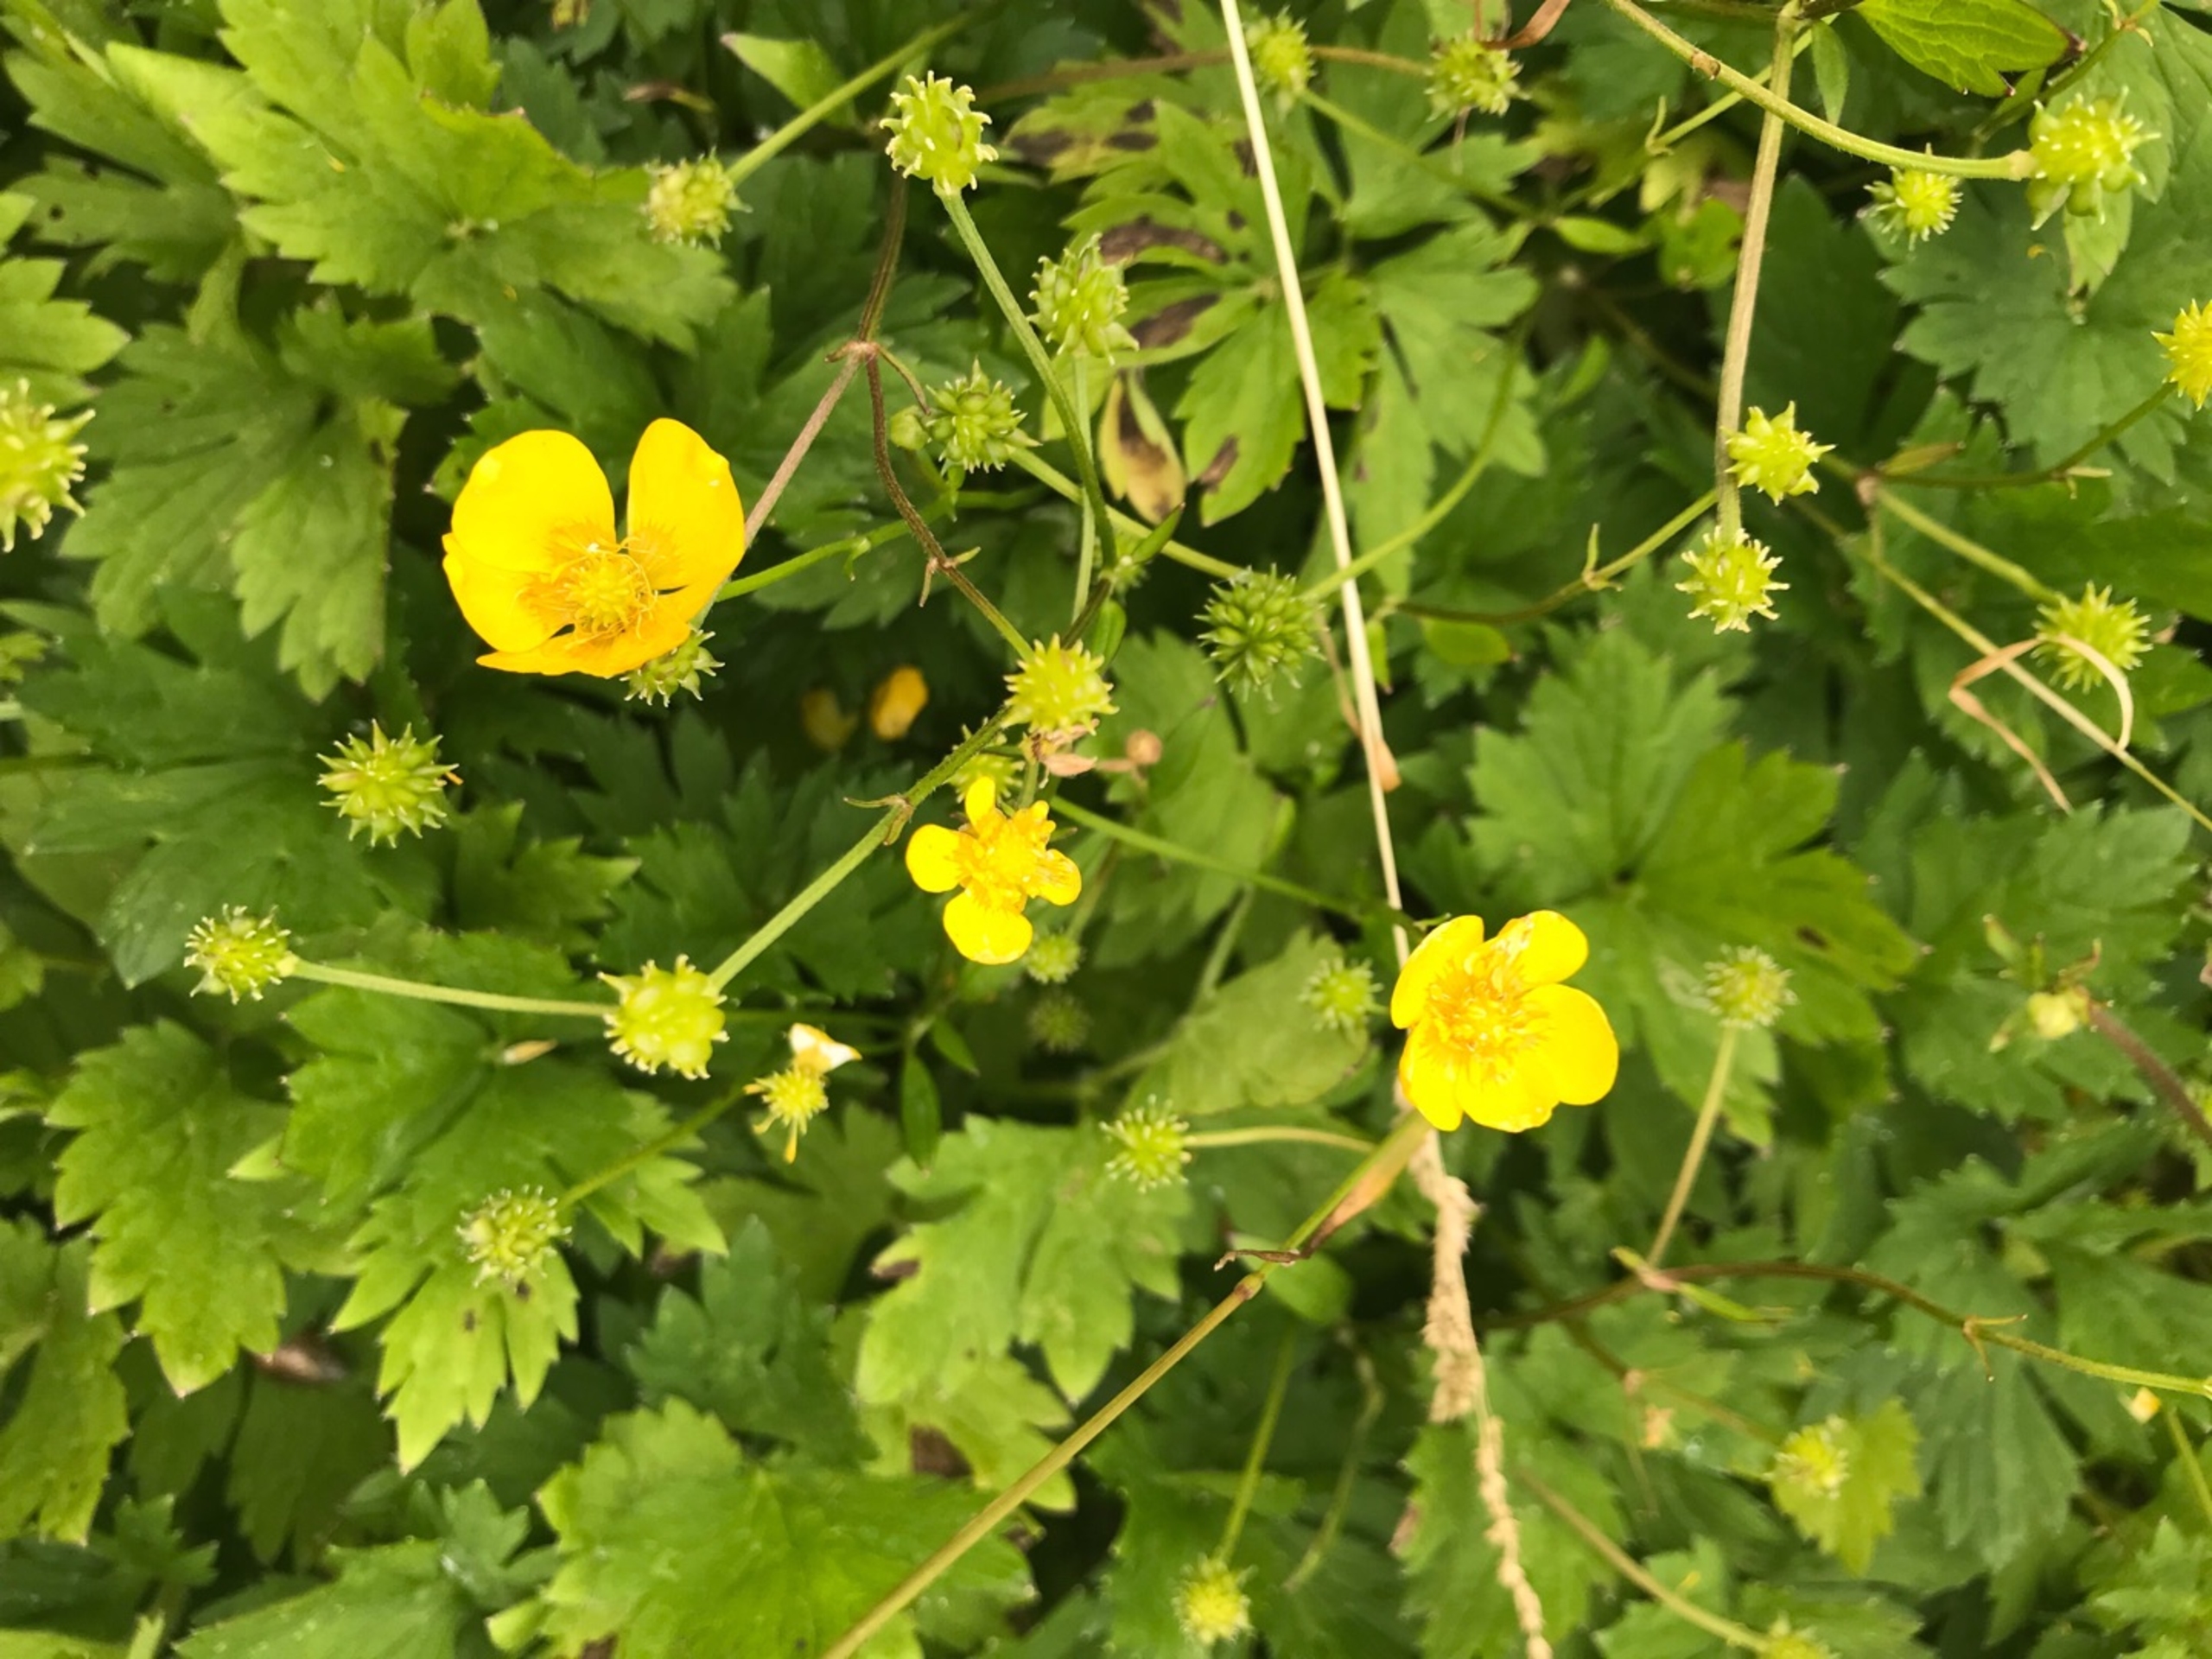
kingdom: Plantae
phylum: Tracheophyta
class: Magnoliopsida
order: Ranunculales
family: Ranunculaceae
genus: Ranunculus
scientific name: Ranunculus repens
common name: Lav ranunkel
